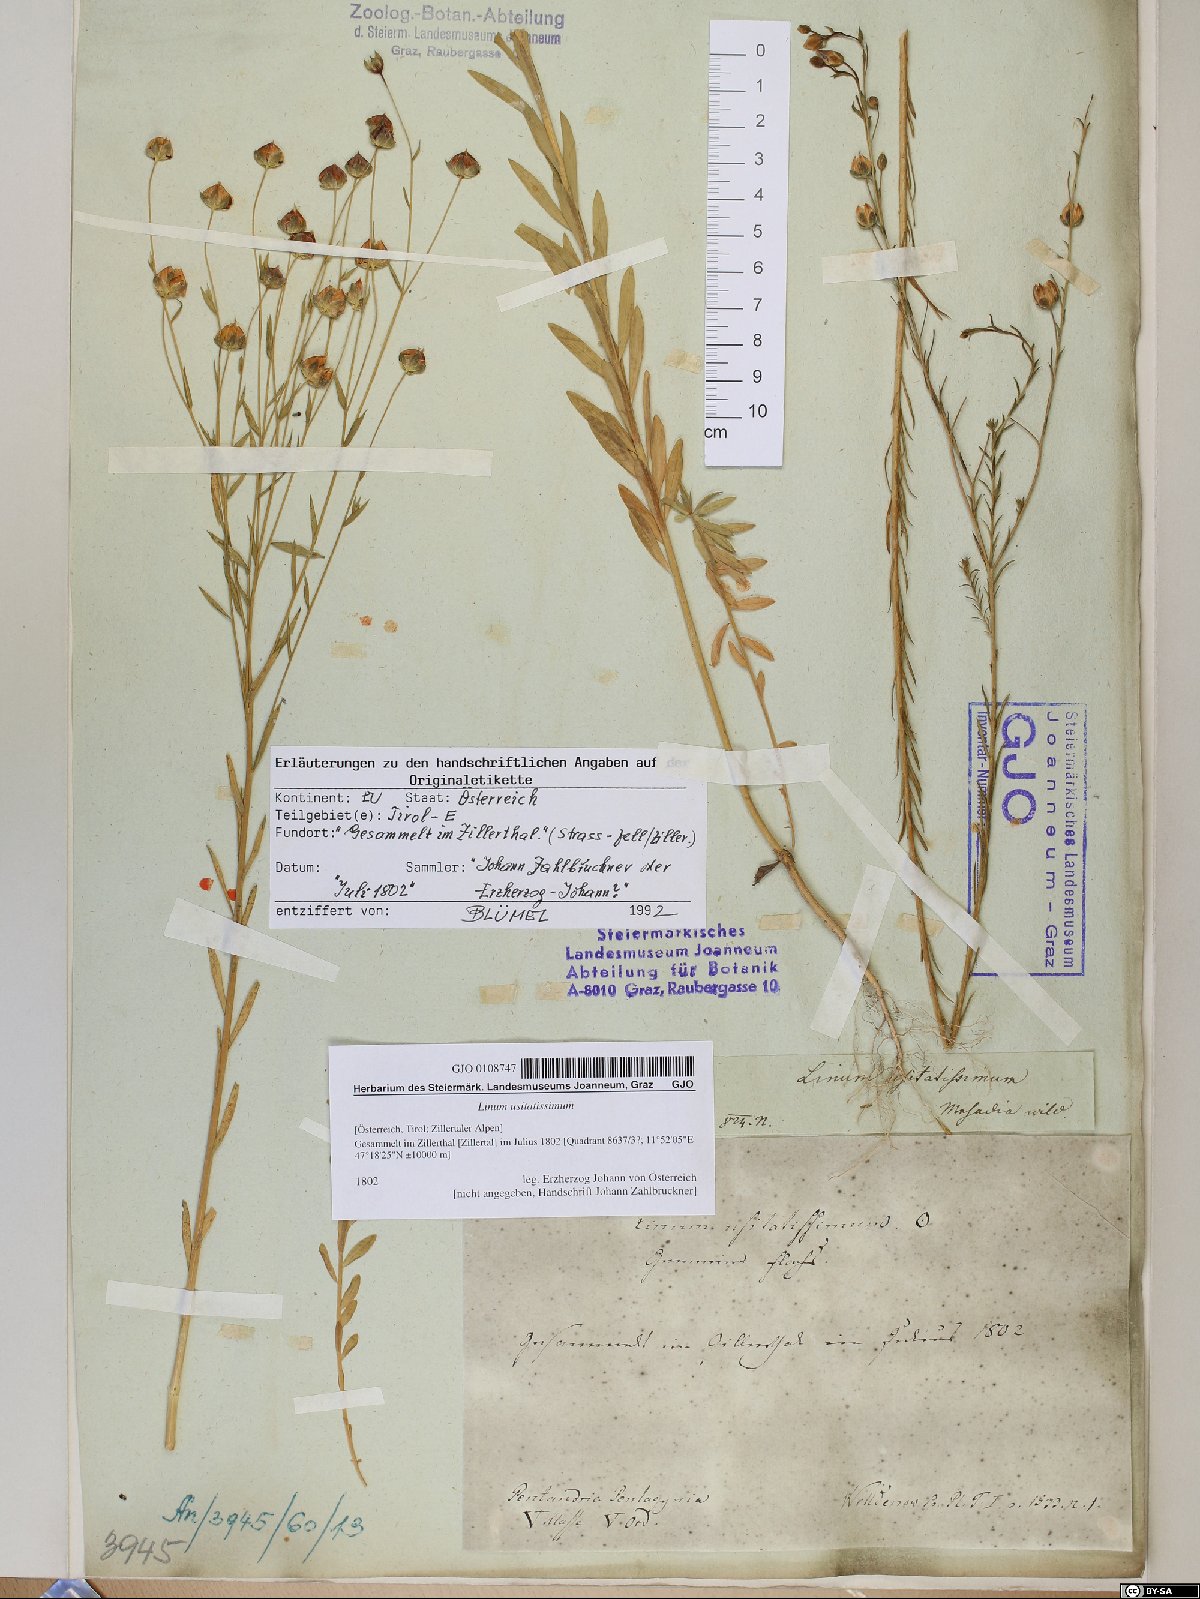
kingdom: Plantae
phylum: Tracheophyta
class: Magnoliopsida
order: Malpighiales
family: Linaceae
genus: Linum
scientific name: Linum usitatissimum
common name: Flax
